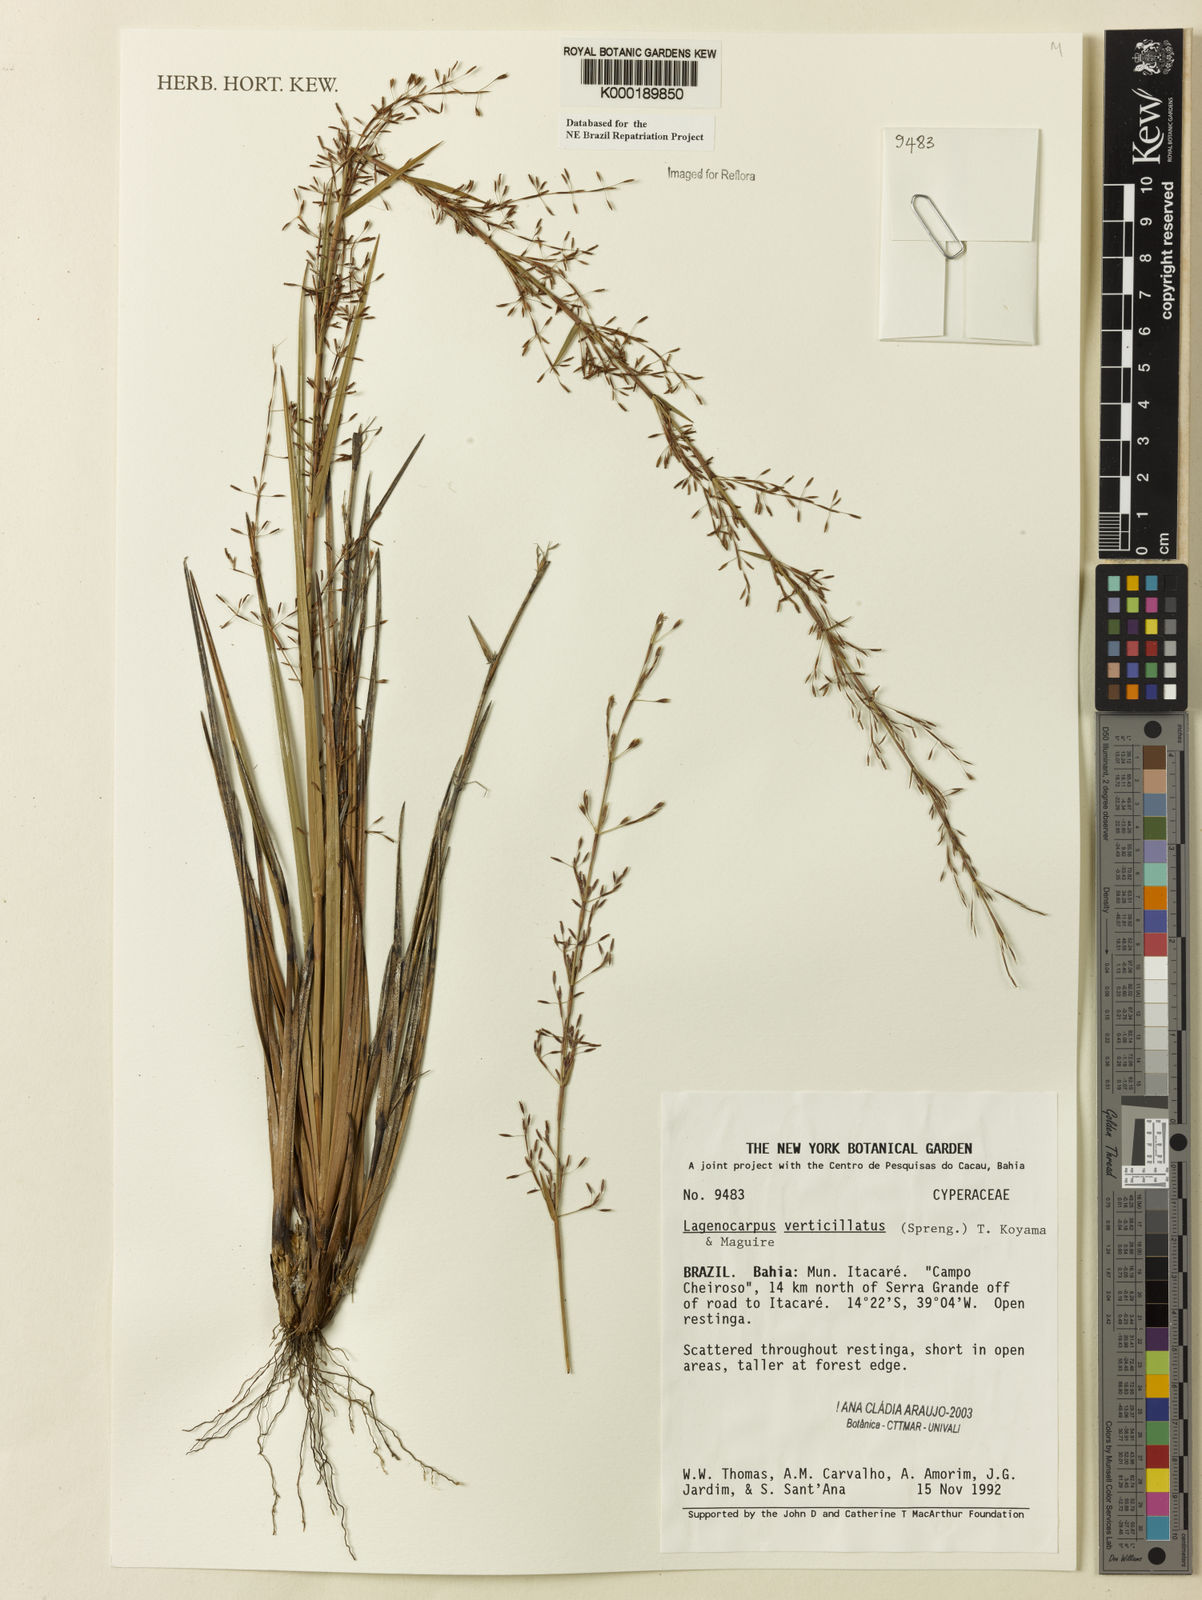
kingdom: Plantae
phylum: Tracheophyta
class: Liliopsida
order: Poales
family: Cyperaceae
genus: Cryptangium
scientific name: Cryptangium verticillatum
